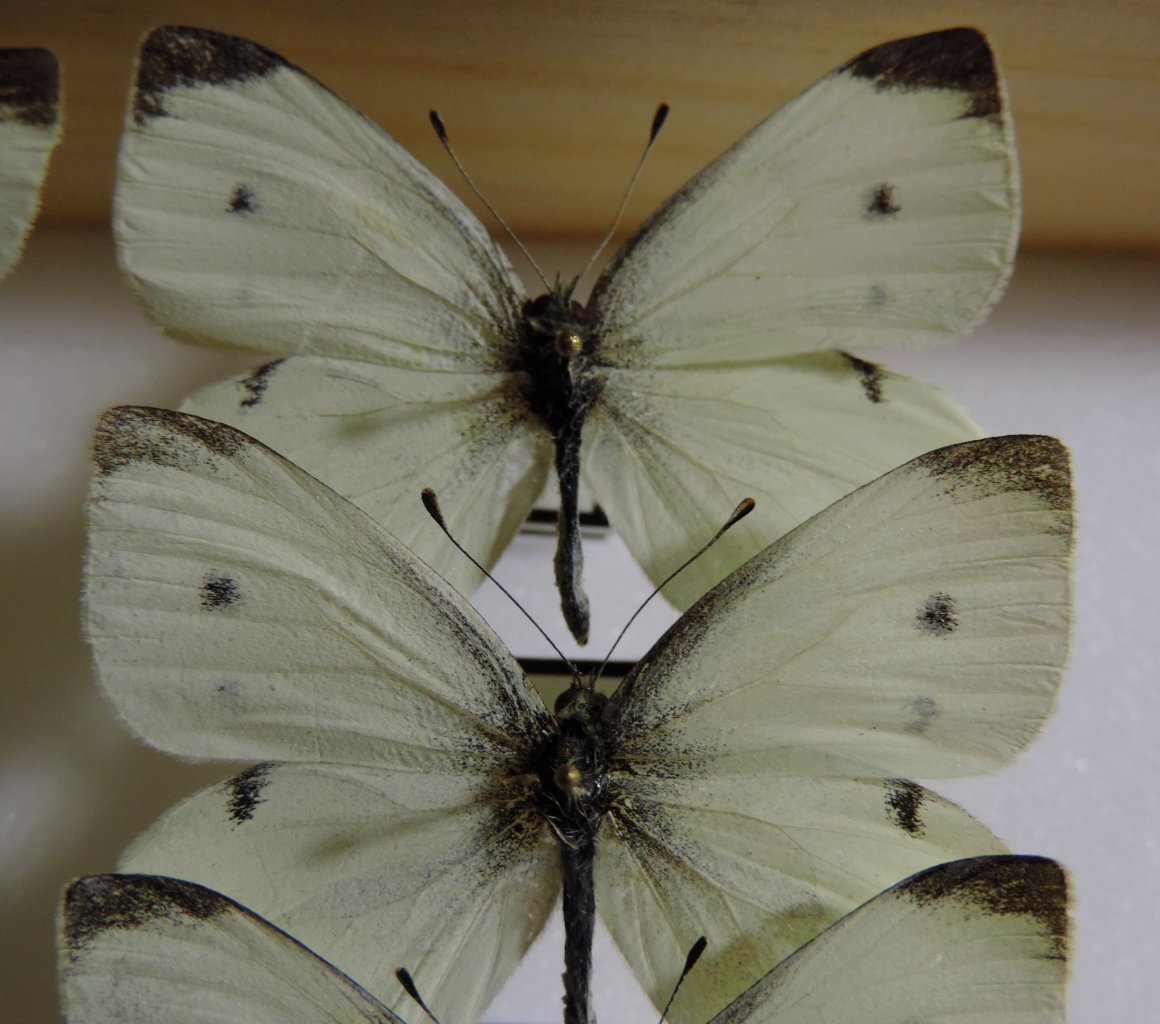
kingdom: Animalia
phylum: Arthropoda
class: Insecta
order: Lepidoptera
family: Pieridae
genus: Pieris
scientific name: Pieris rapae
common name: Cabbage White
